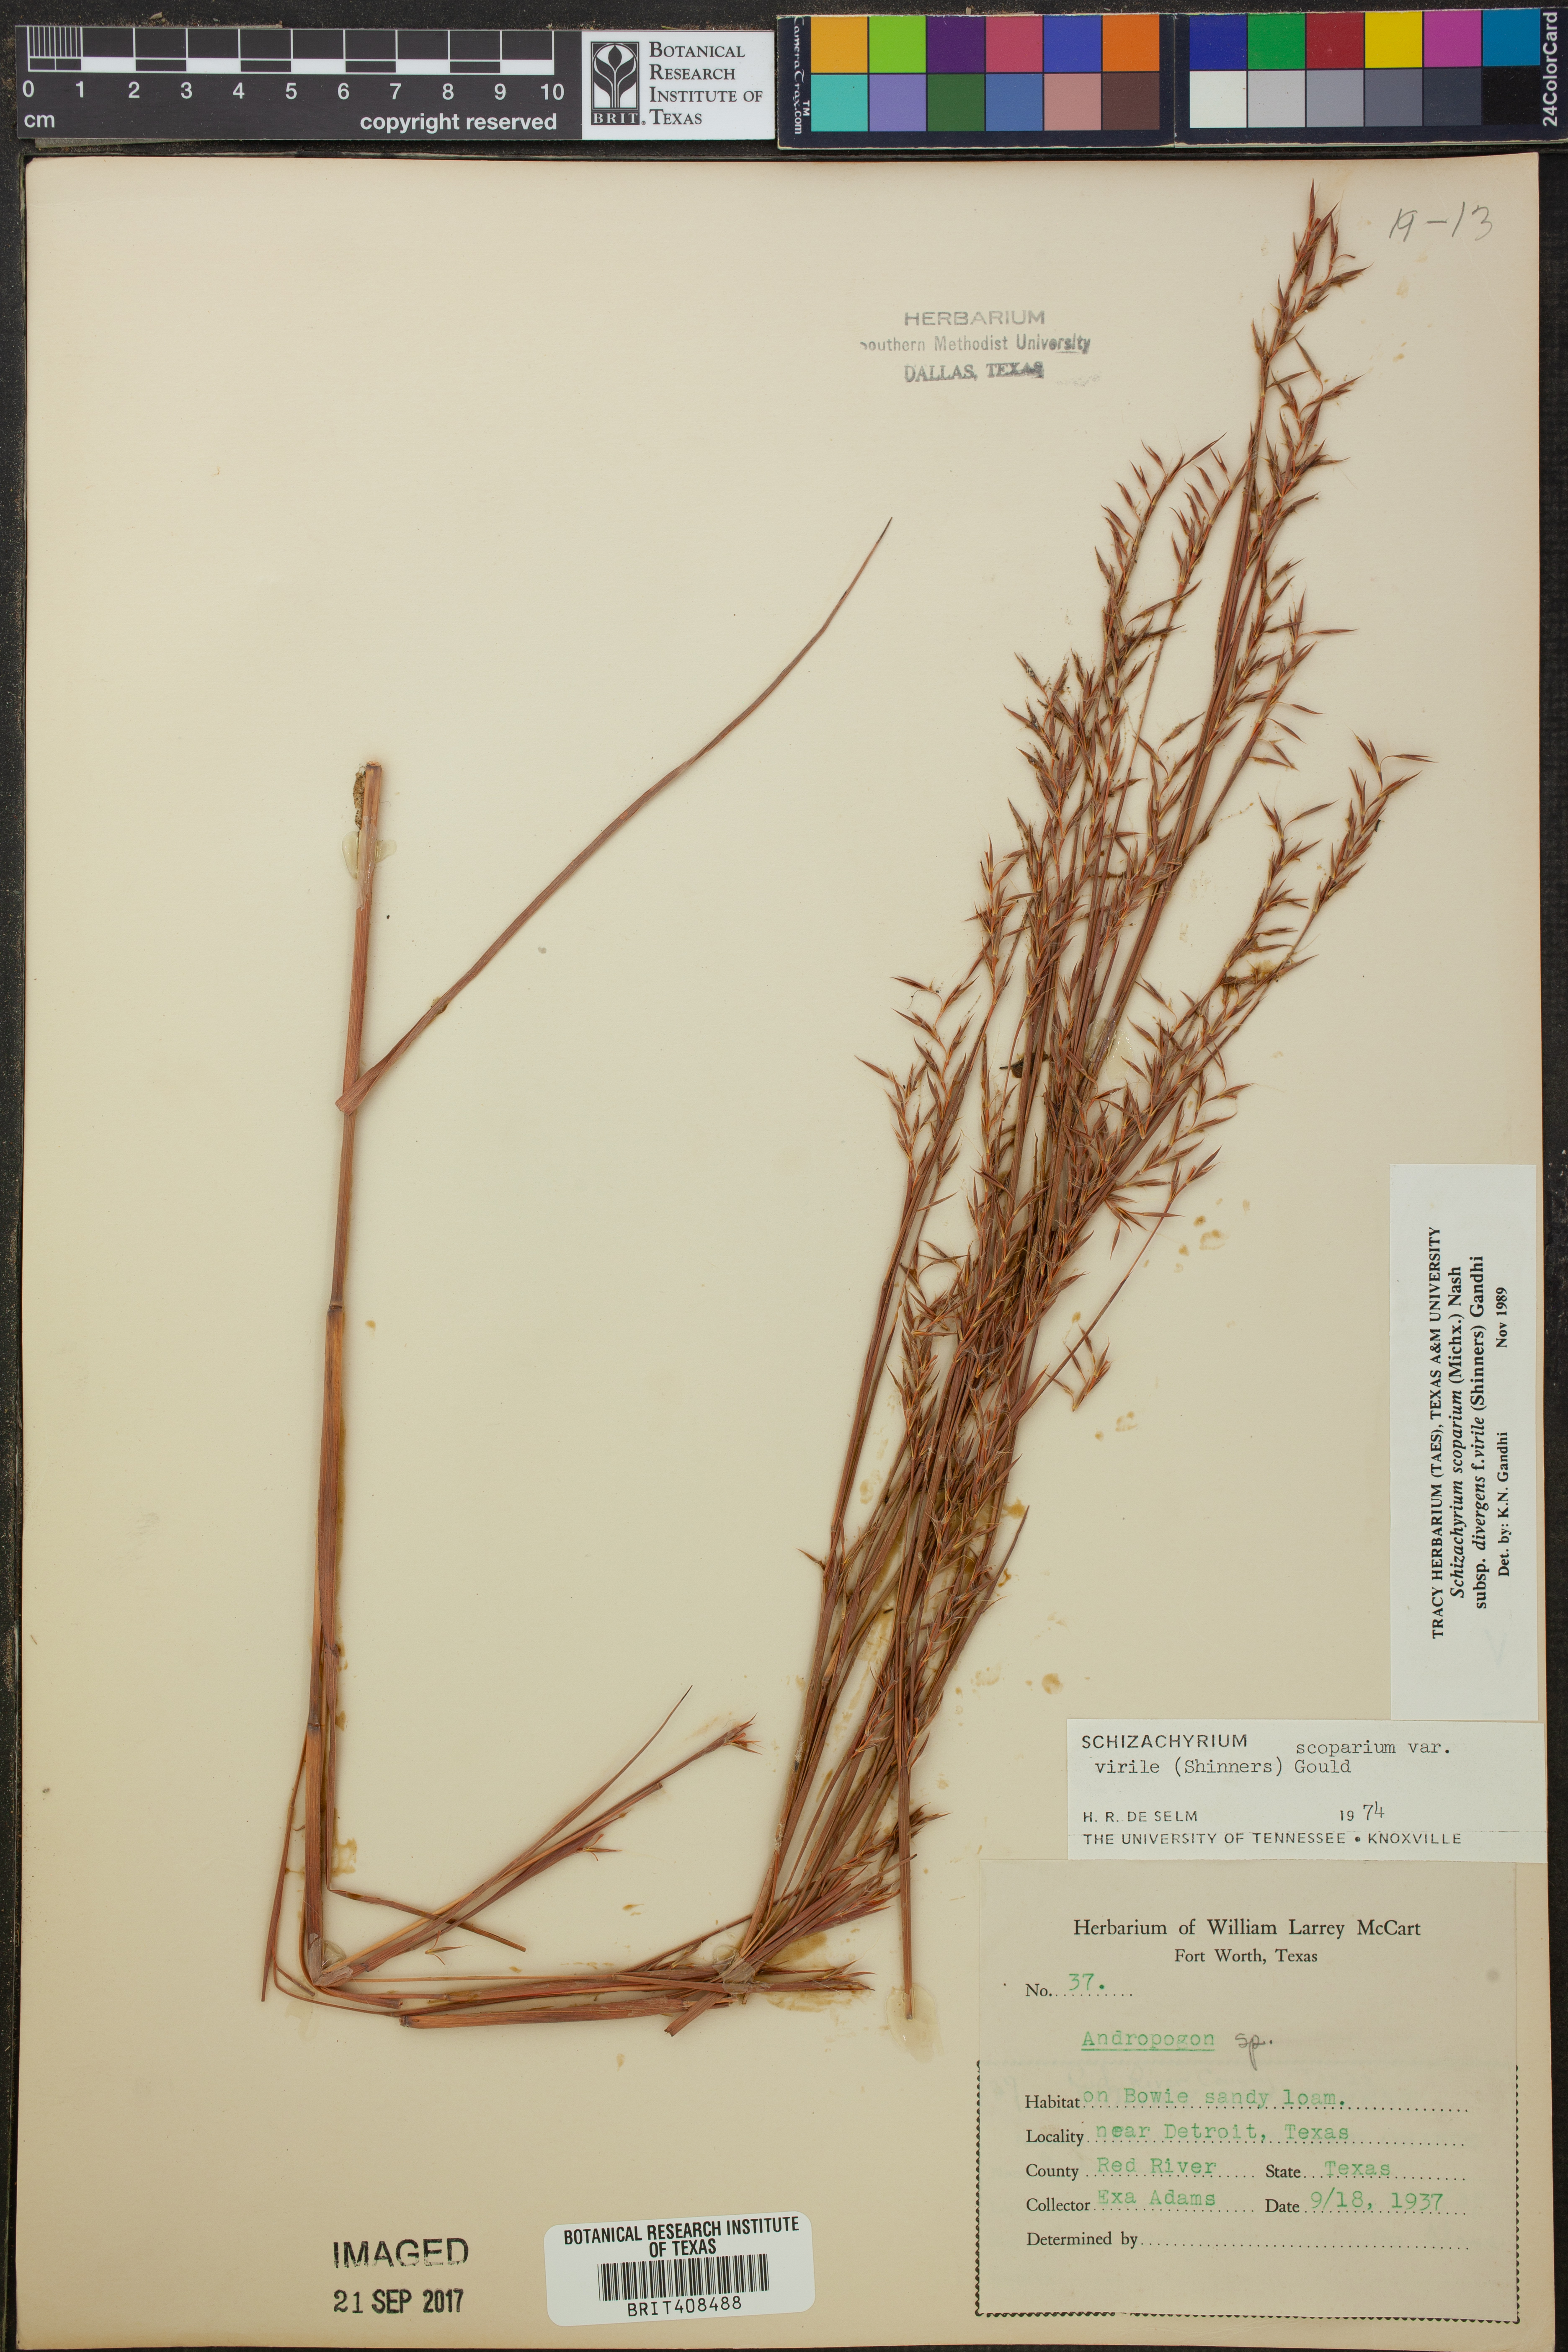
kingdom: Plantae
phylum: Tracheophyta
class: Liliopsida
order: Poales
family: Poaceae
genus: Schizachyrium
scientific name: Schizachyrium scoparium
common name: Little bluestem
